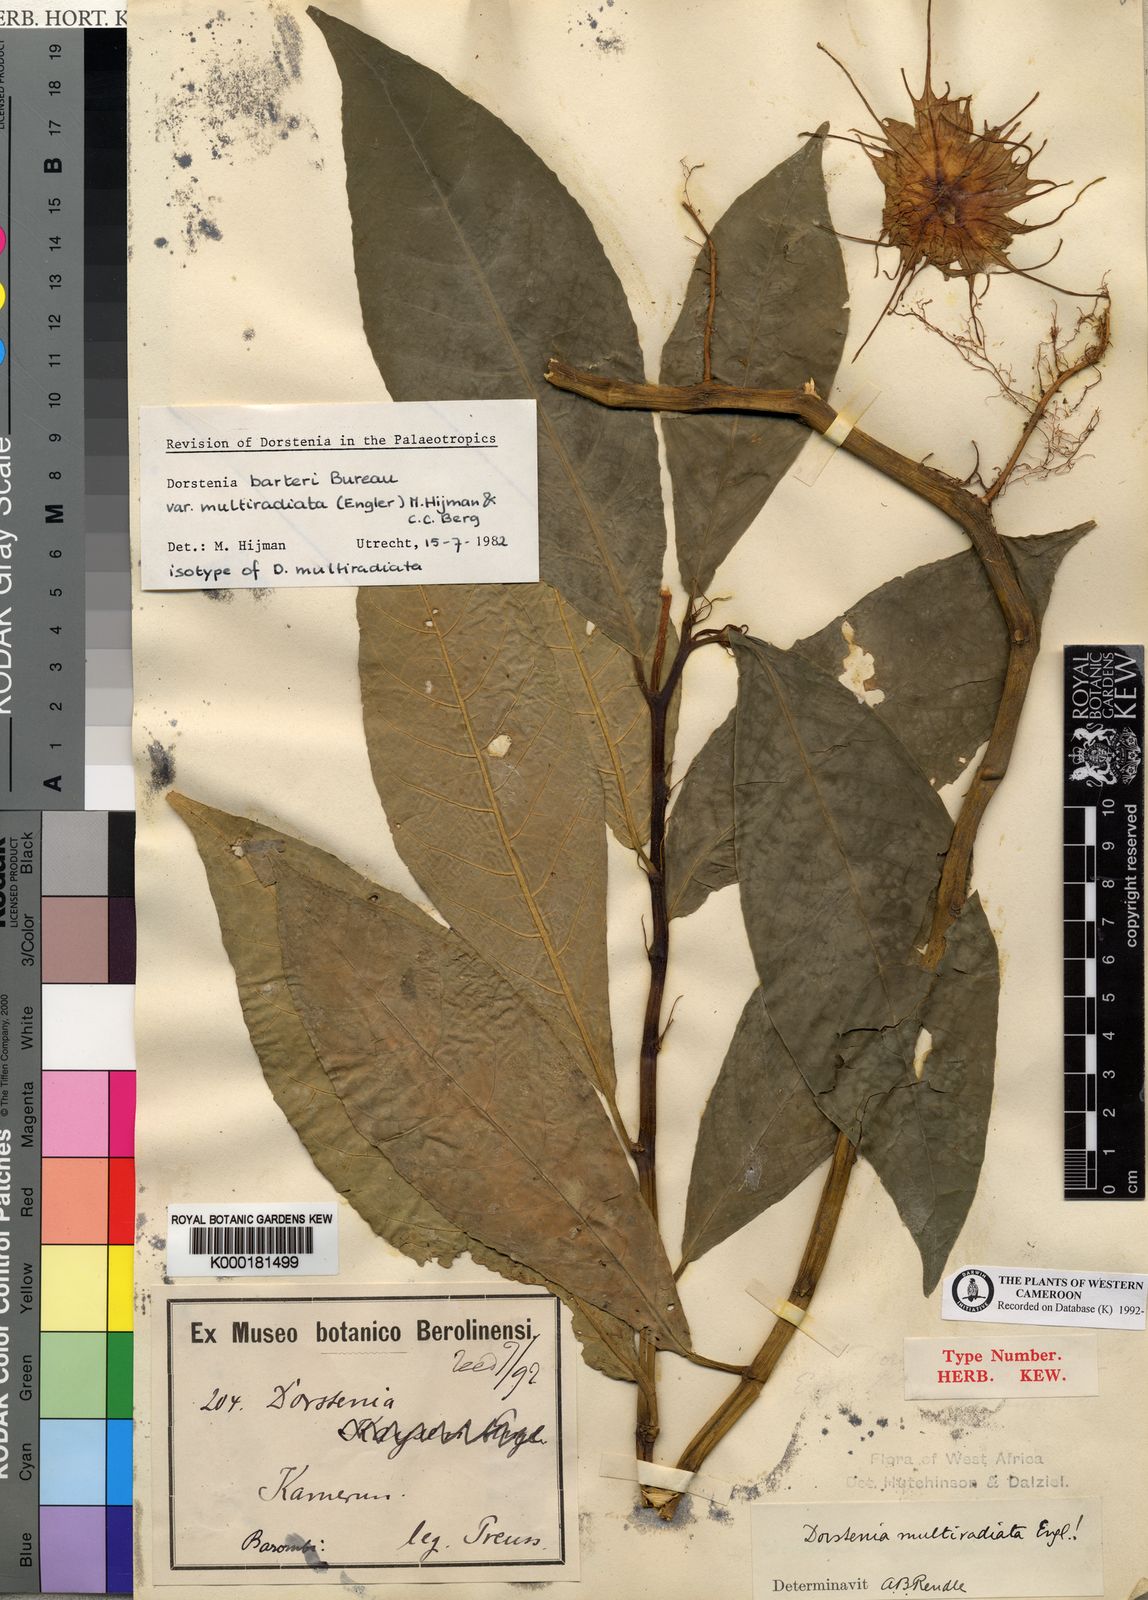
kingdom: Plantae
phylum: Tracheophyta
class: Magnoliopsida
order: Rosales
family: Moraceae
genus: Dorstenia
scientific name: Dorstenia barteri
